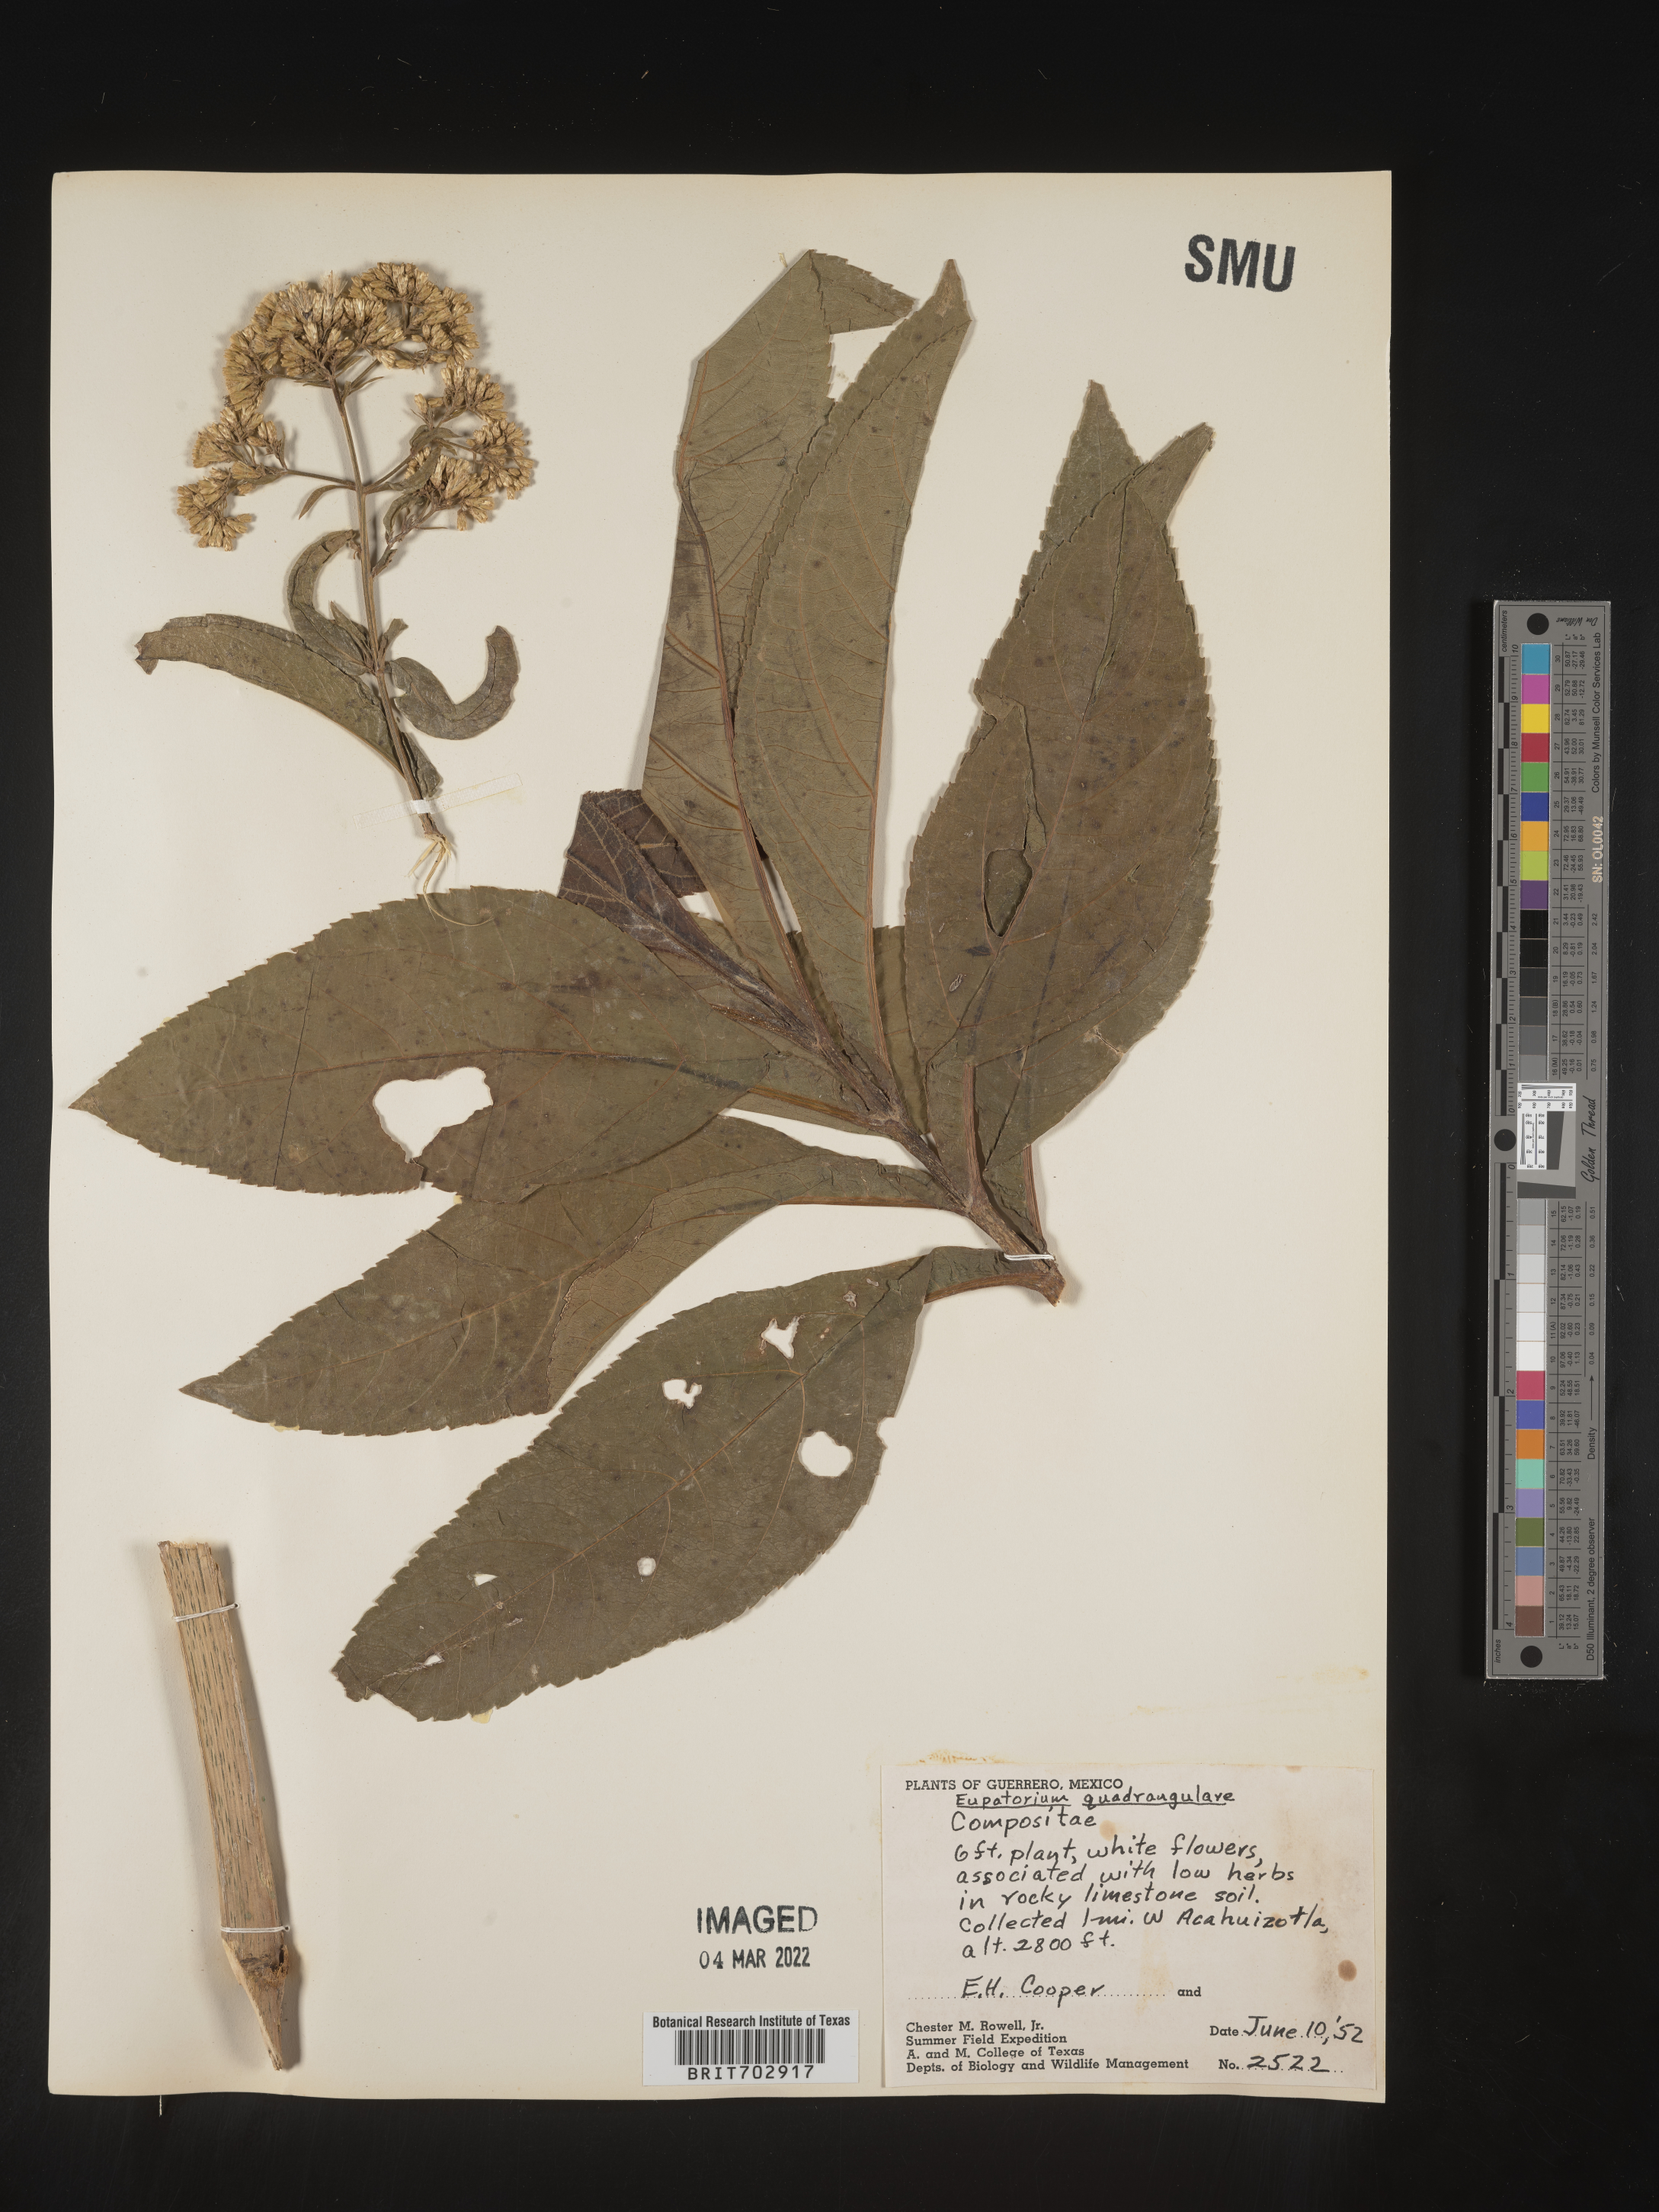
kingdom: Plantae
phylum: Tracheophyta
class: Magnoliopsida
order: Asterales
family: Asteraceae
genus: Eupatorium
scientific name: Eupatorium
